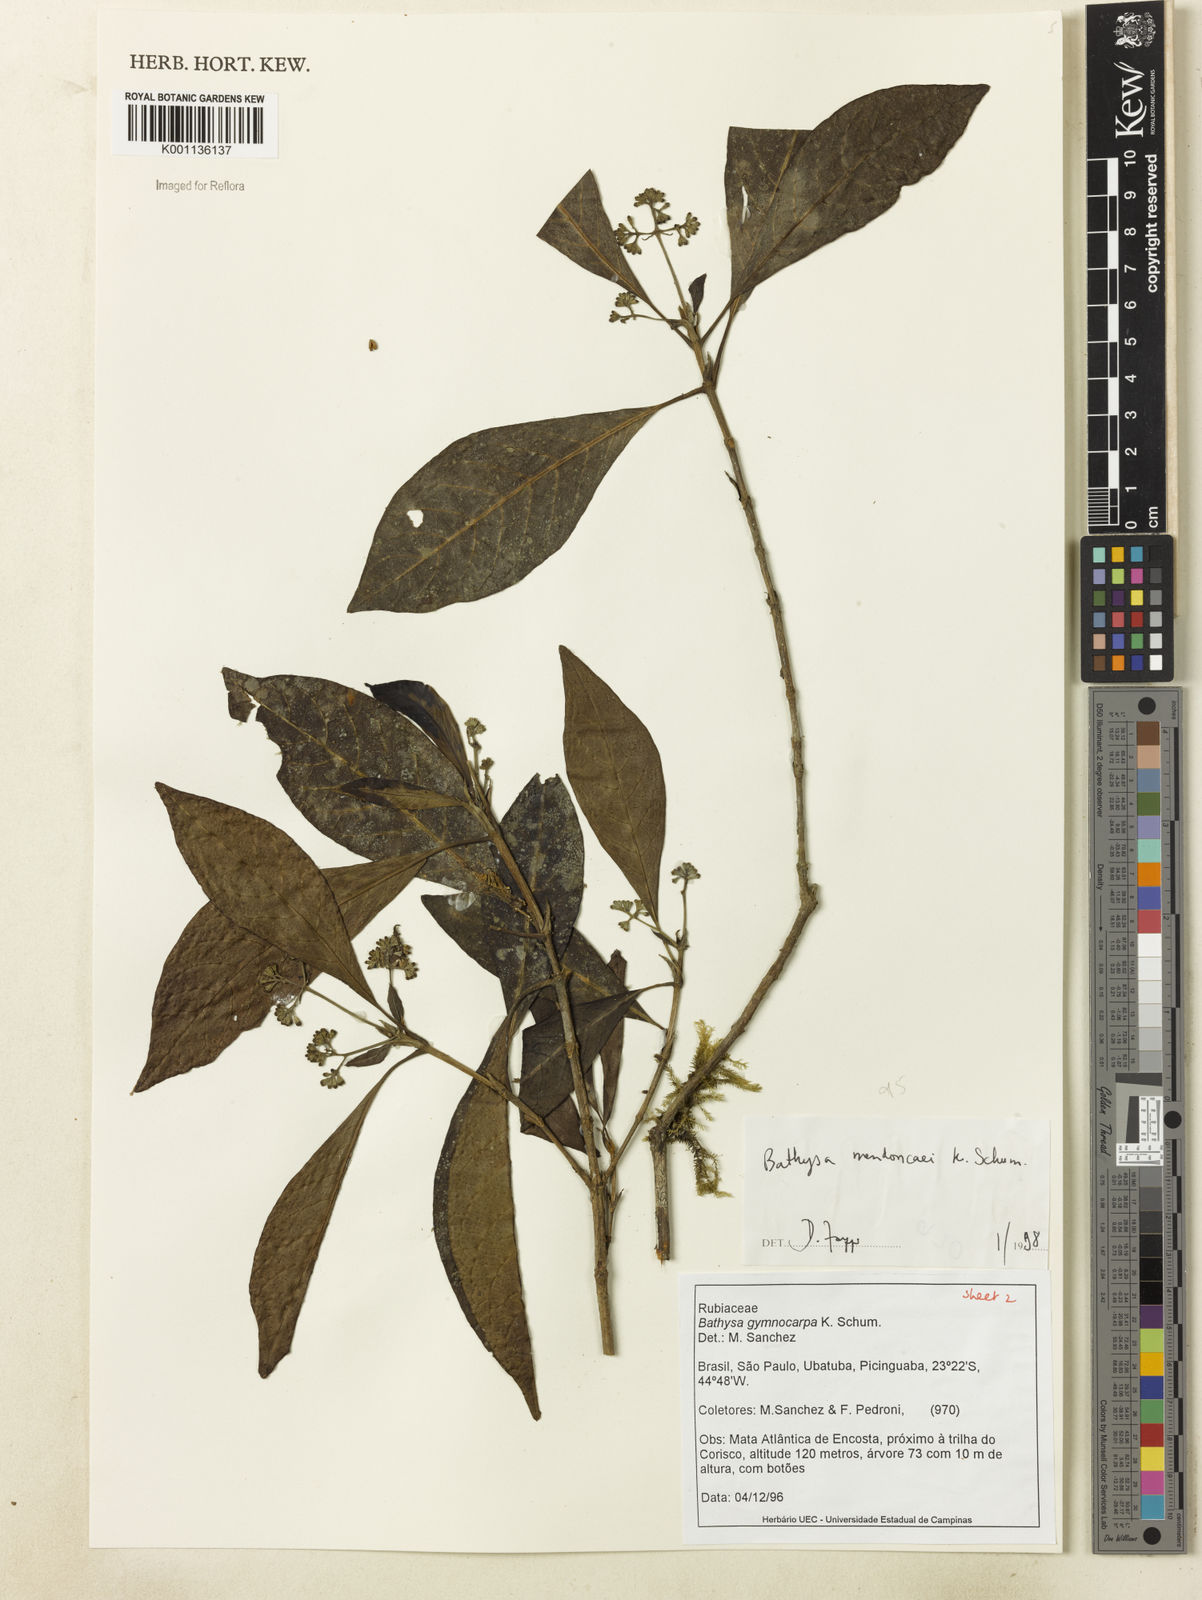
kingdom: Plantae
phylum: Tracheophyta
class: Magnoliopsida
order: Gentianales
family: Rubiaceae
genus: Bathysa
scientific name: Bathysa
